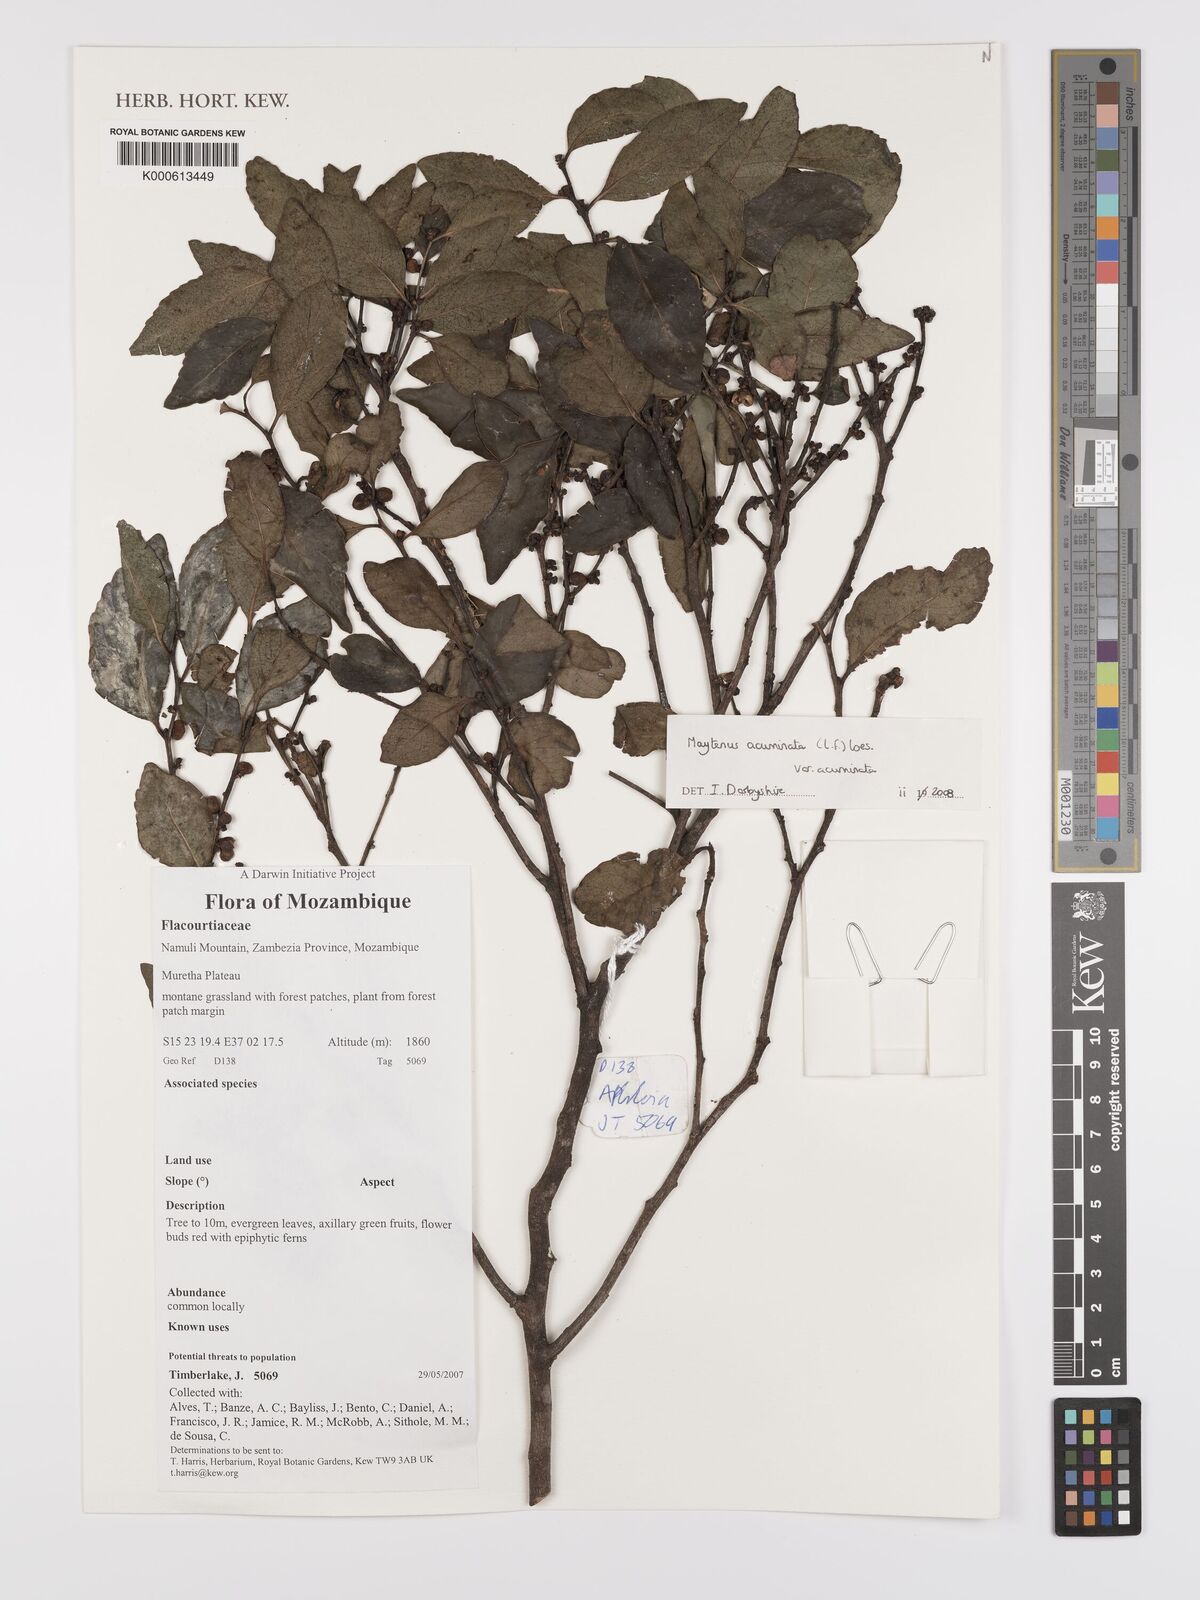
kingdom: Plantae
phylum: Tracheophyta
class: Magnoliopsida
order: Celastrales
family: Celastraceae
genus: Gymnosporia
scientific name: Gymnosporia acuminata
